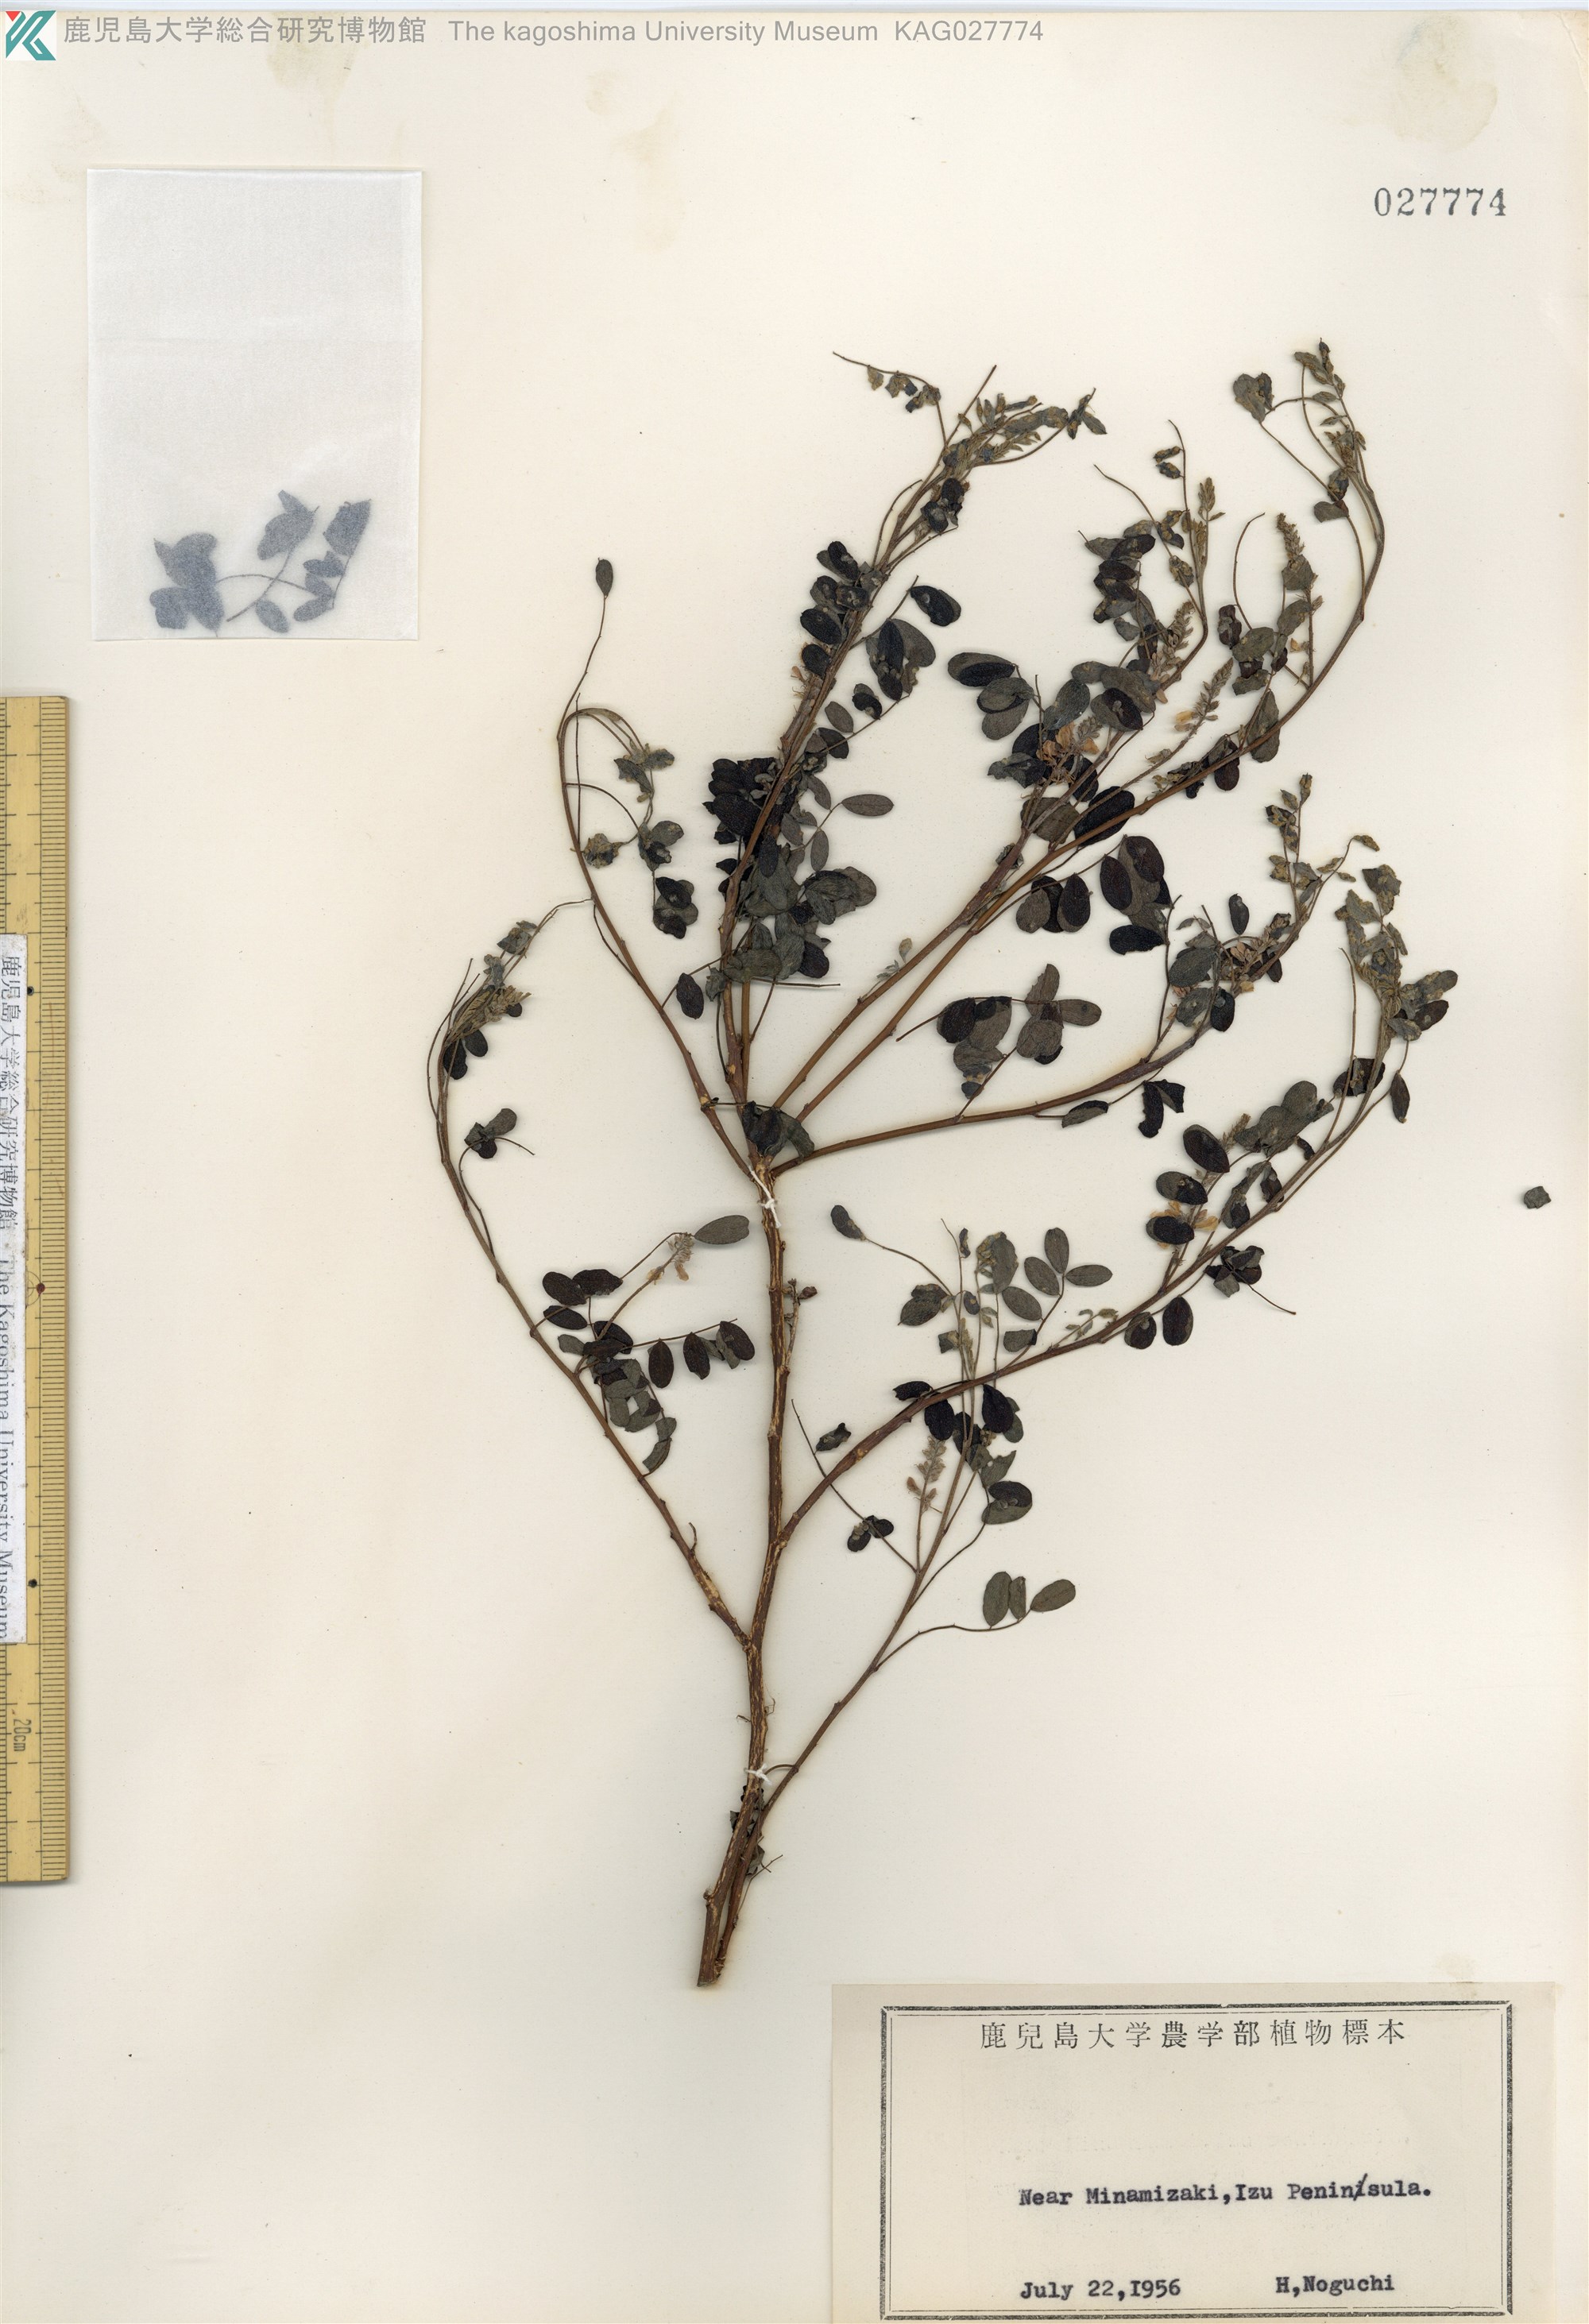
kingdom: Plantae
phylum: Tracheophyta
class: Magnoliopsida
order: Fabales
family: Fabaceae
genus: Indigofera
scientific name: Indigofera bungeana
